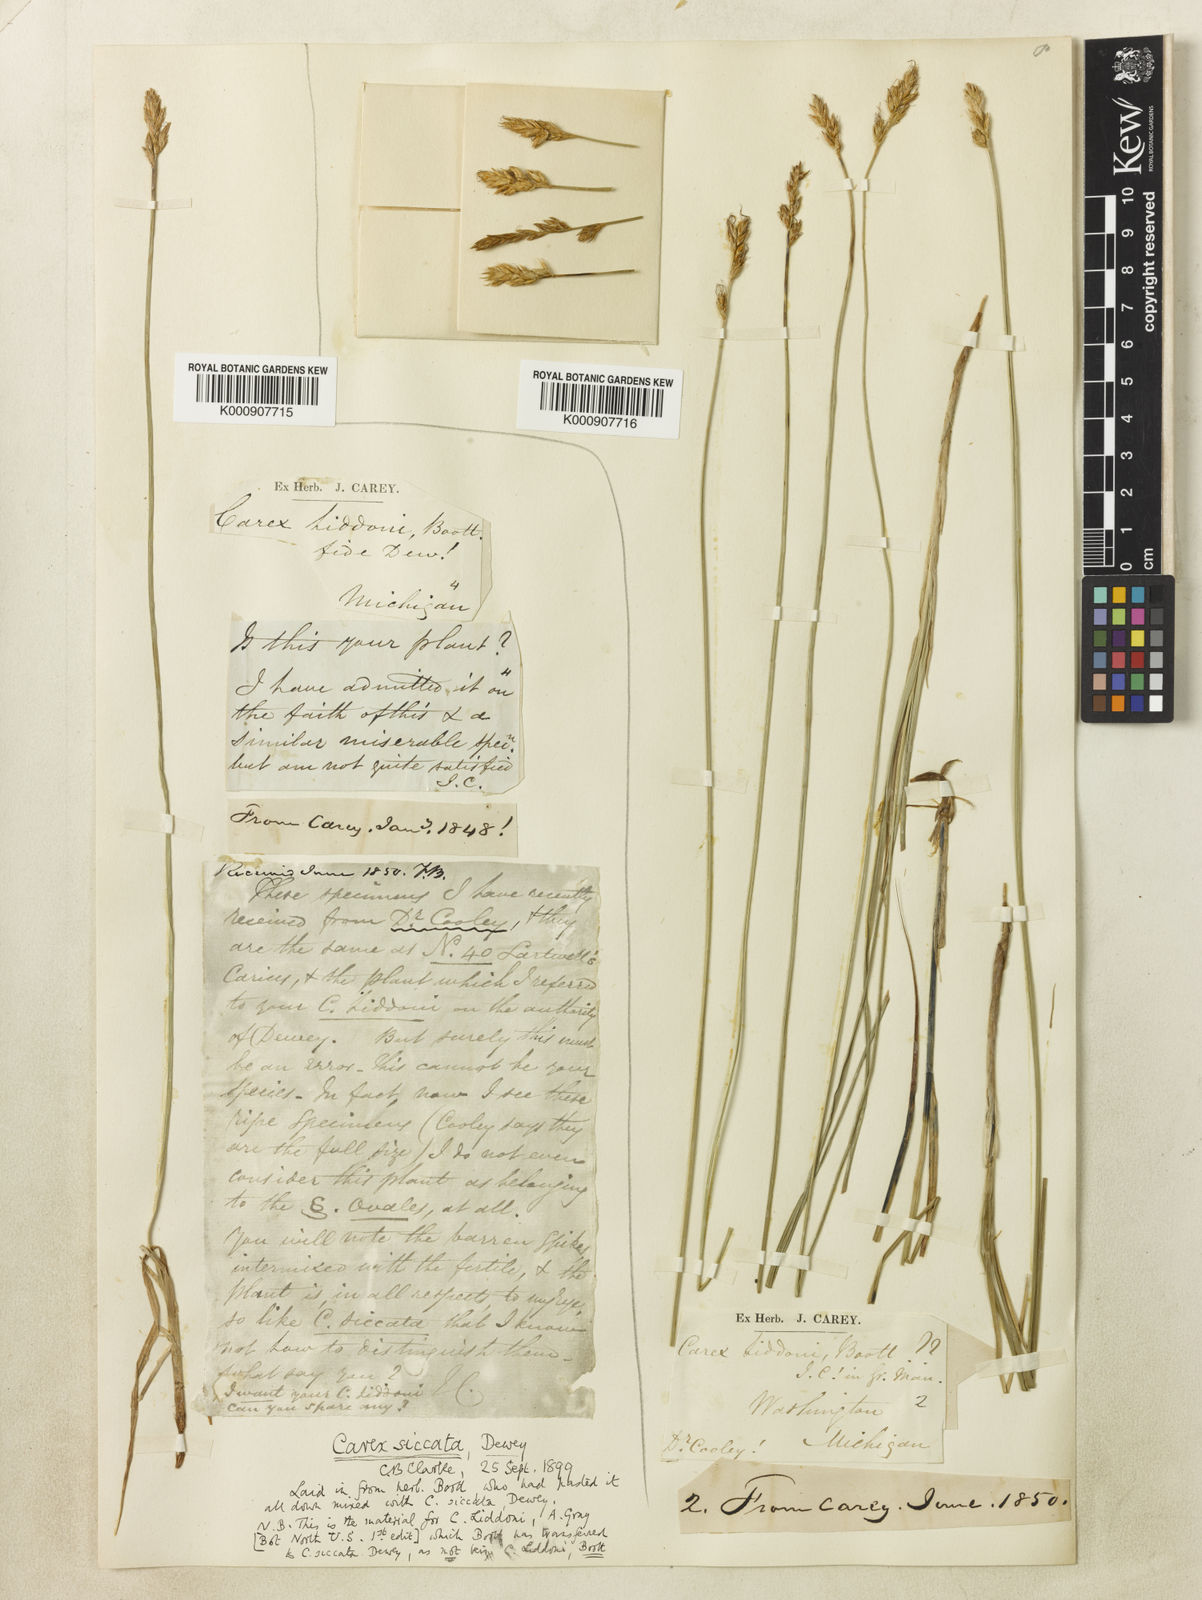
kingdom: Plantae
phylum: Tracheophyta
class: Liliopsida
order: Poales
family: Cyperaceae
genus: Carex
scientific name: Carex foenea
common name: Bronze sedge
